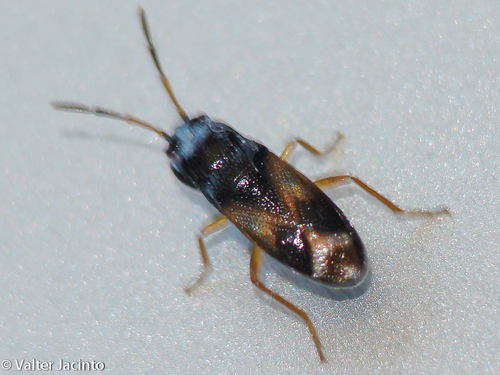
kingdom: Animalia
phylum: Arthropoda
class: Insecta
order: Hemiptera
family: Rhyparochromidae
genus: Megalonotus
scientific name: Megalonotus praetextatus
